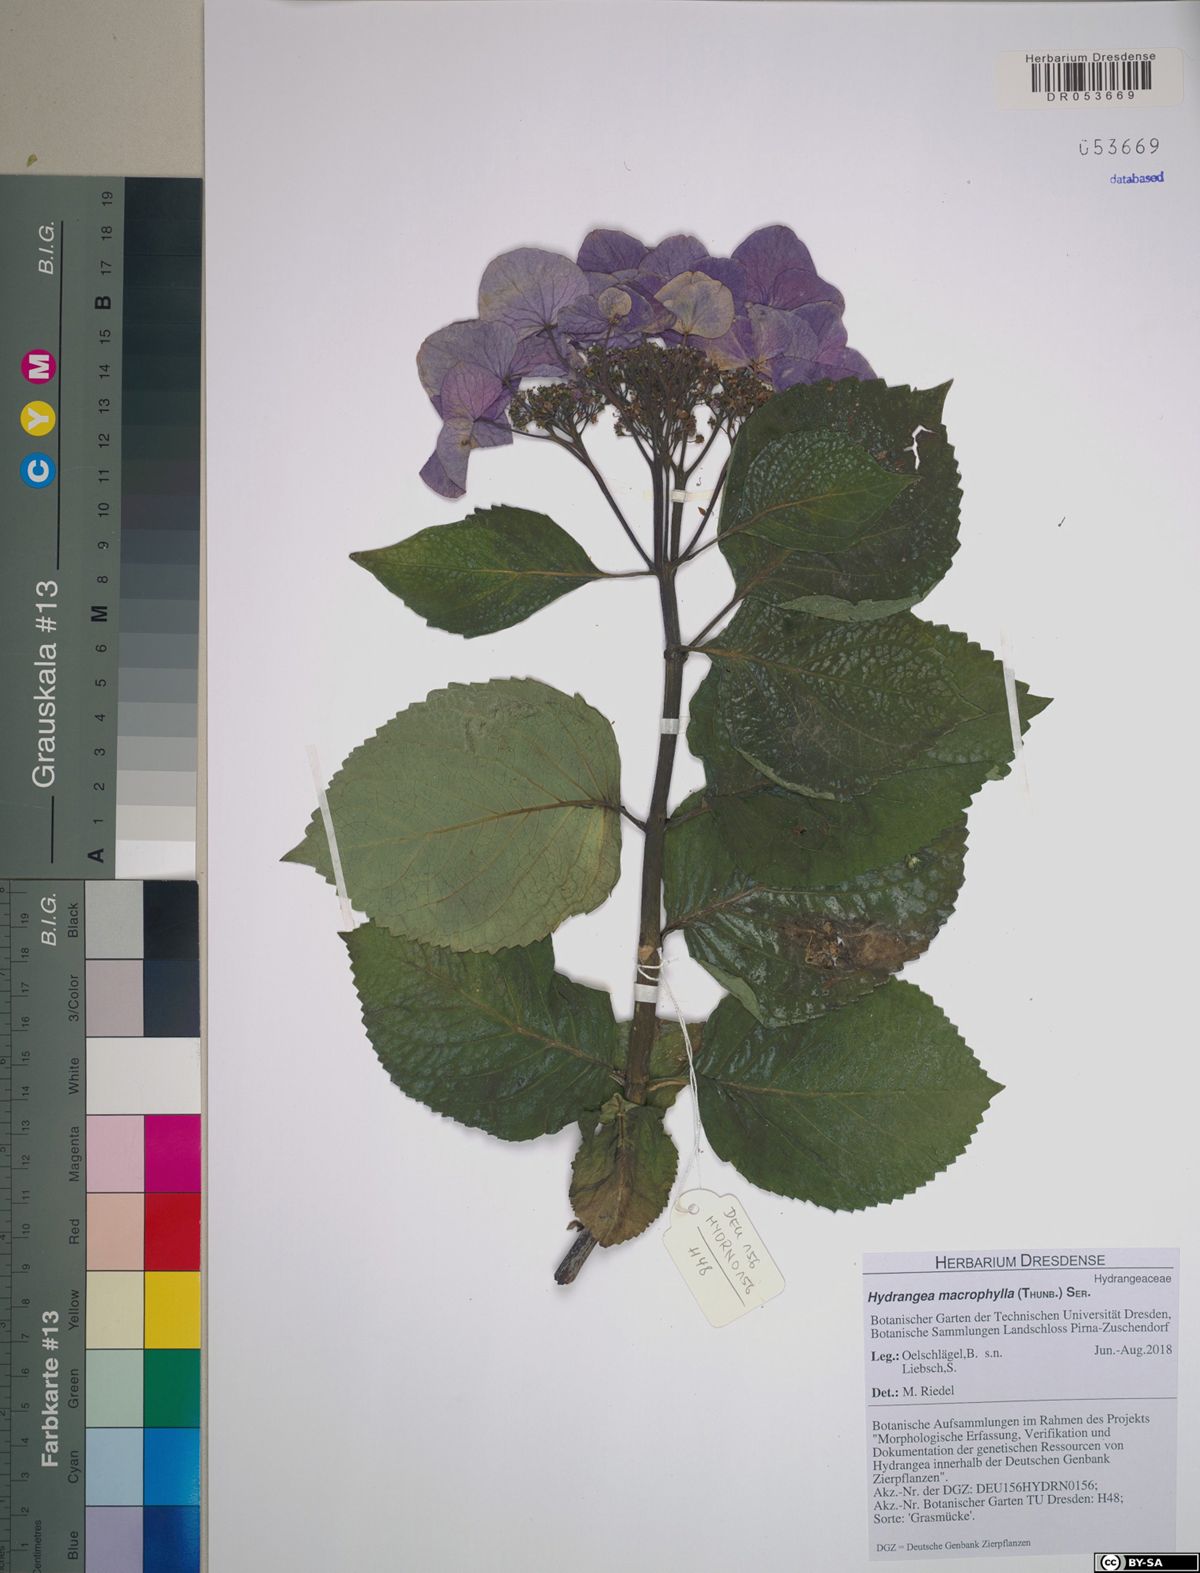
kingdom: Plantae
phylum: Tracheophyta
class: Magnoliopsida
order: Cornales
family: Hydrangeaceae
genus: Hydrangea
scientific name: Hydrangea macrophylla
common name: Hydrangea
